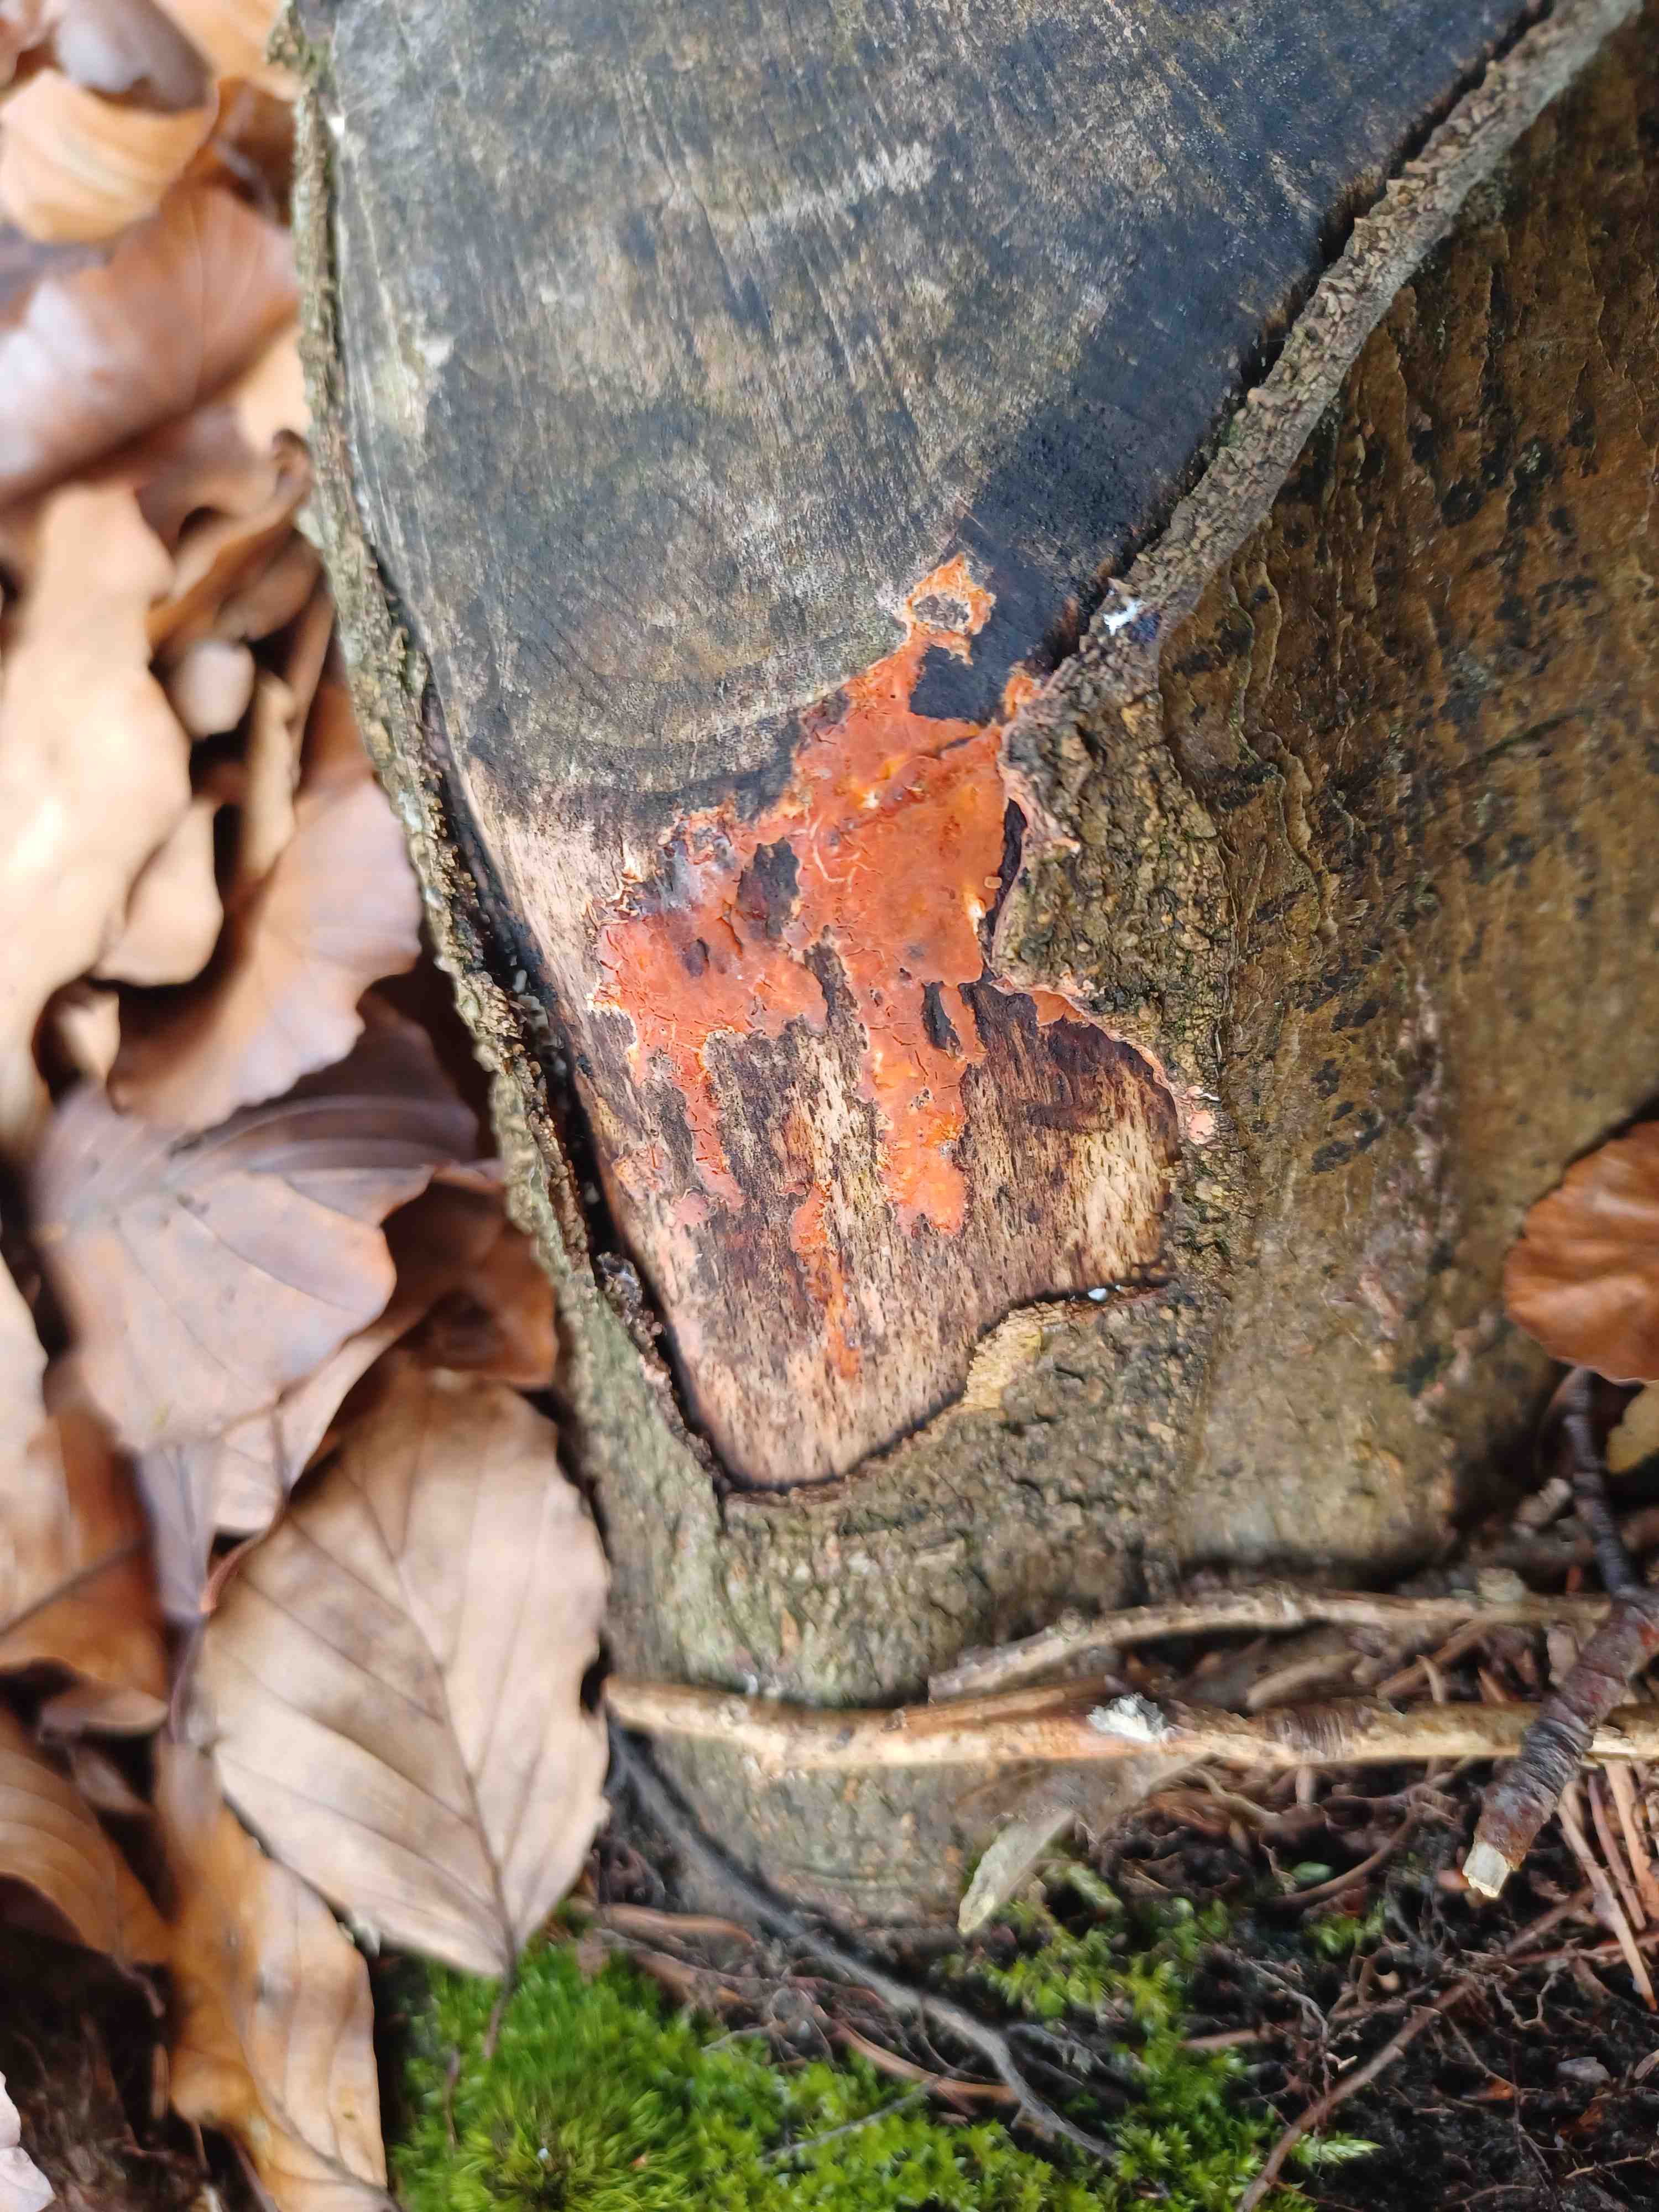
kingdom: Fungi
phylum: Basidiomycota
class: Agaricomycetes
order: Russulales
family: Peniophoraceae
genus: Peniophora
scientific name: Peniophora incarnata
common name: laksefarvet voksskind
